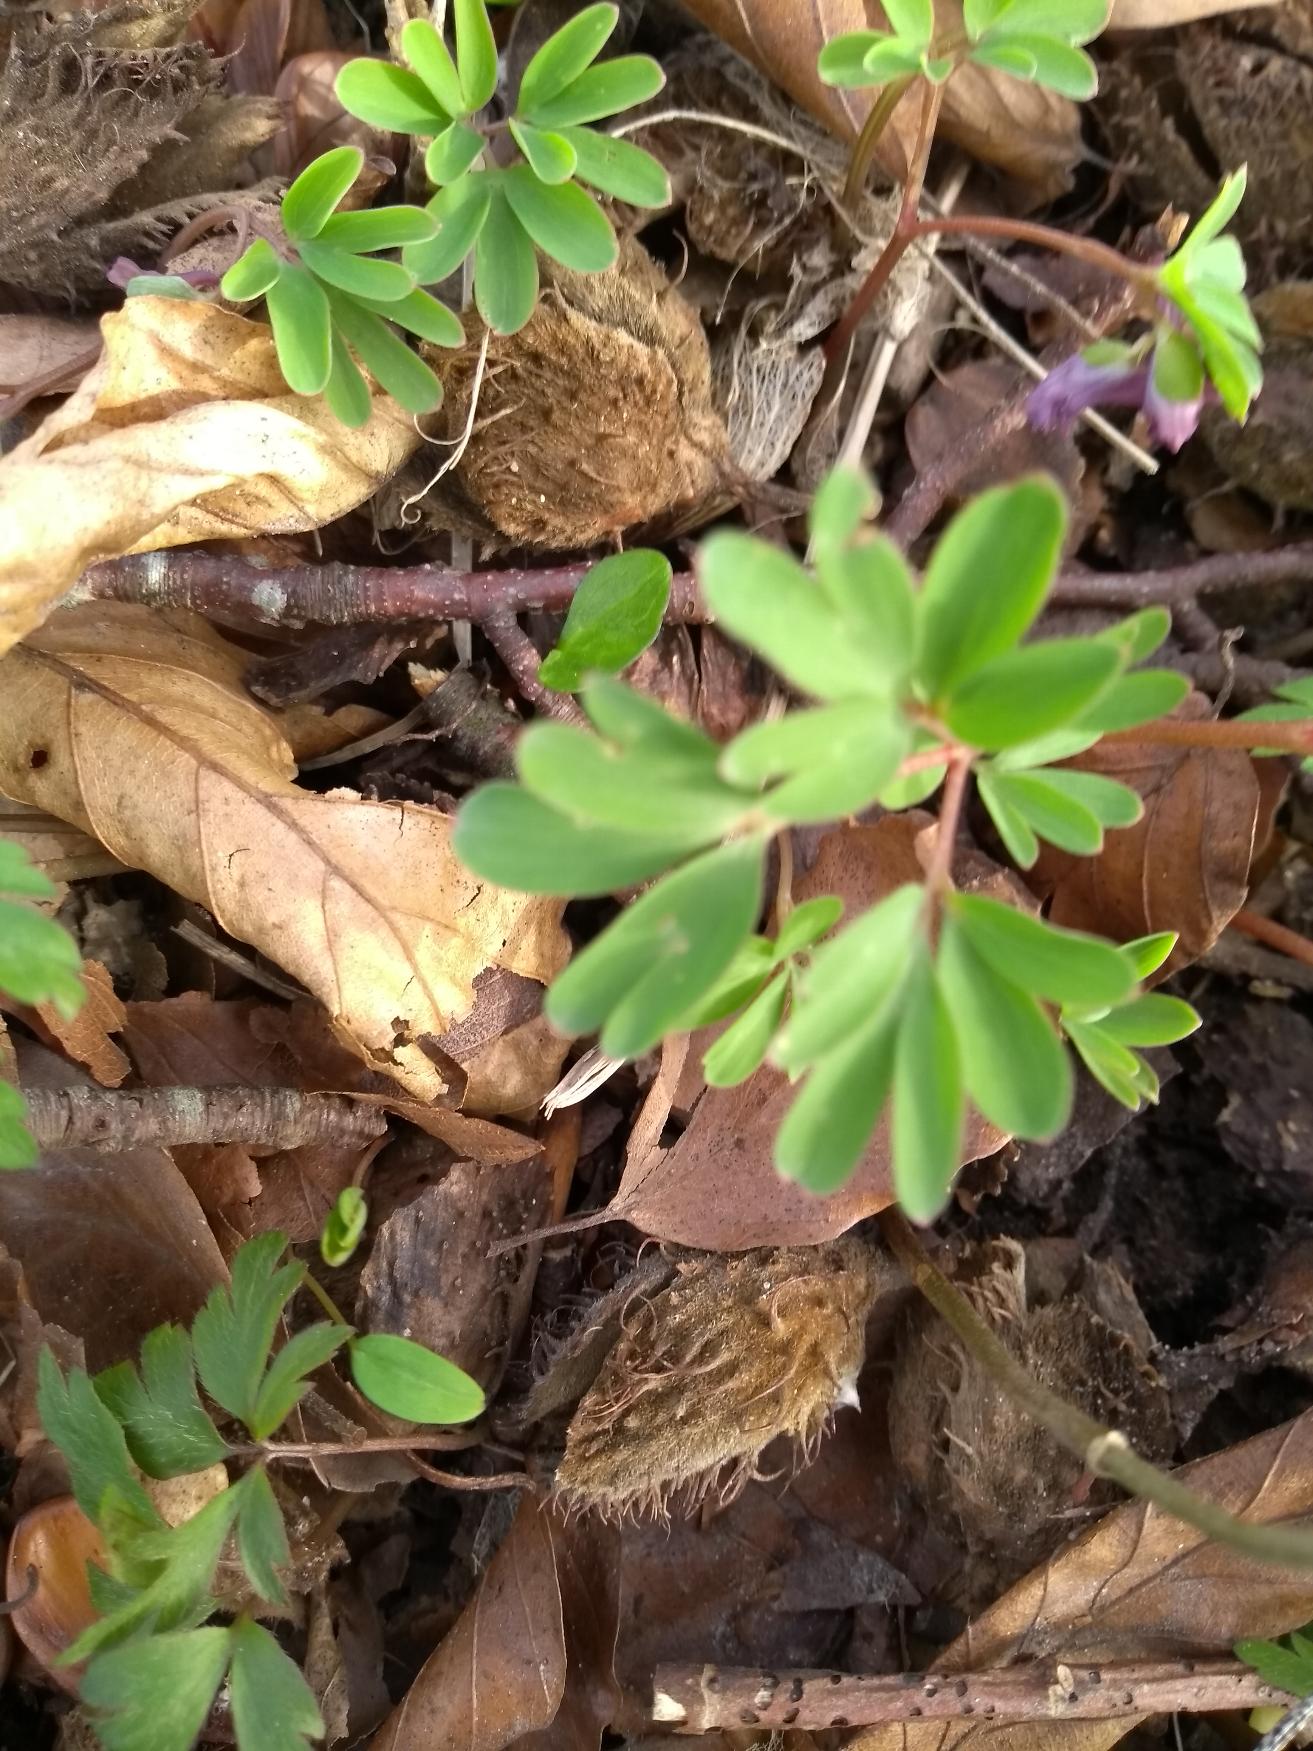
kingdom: Plantae
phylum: Tracheophyta
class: Magnoliopsida
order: Ranunculales
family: Papaveraceae
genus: Corydalis
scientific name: Corydalis intermedia
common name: Liden lærkespore
